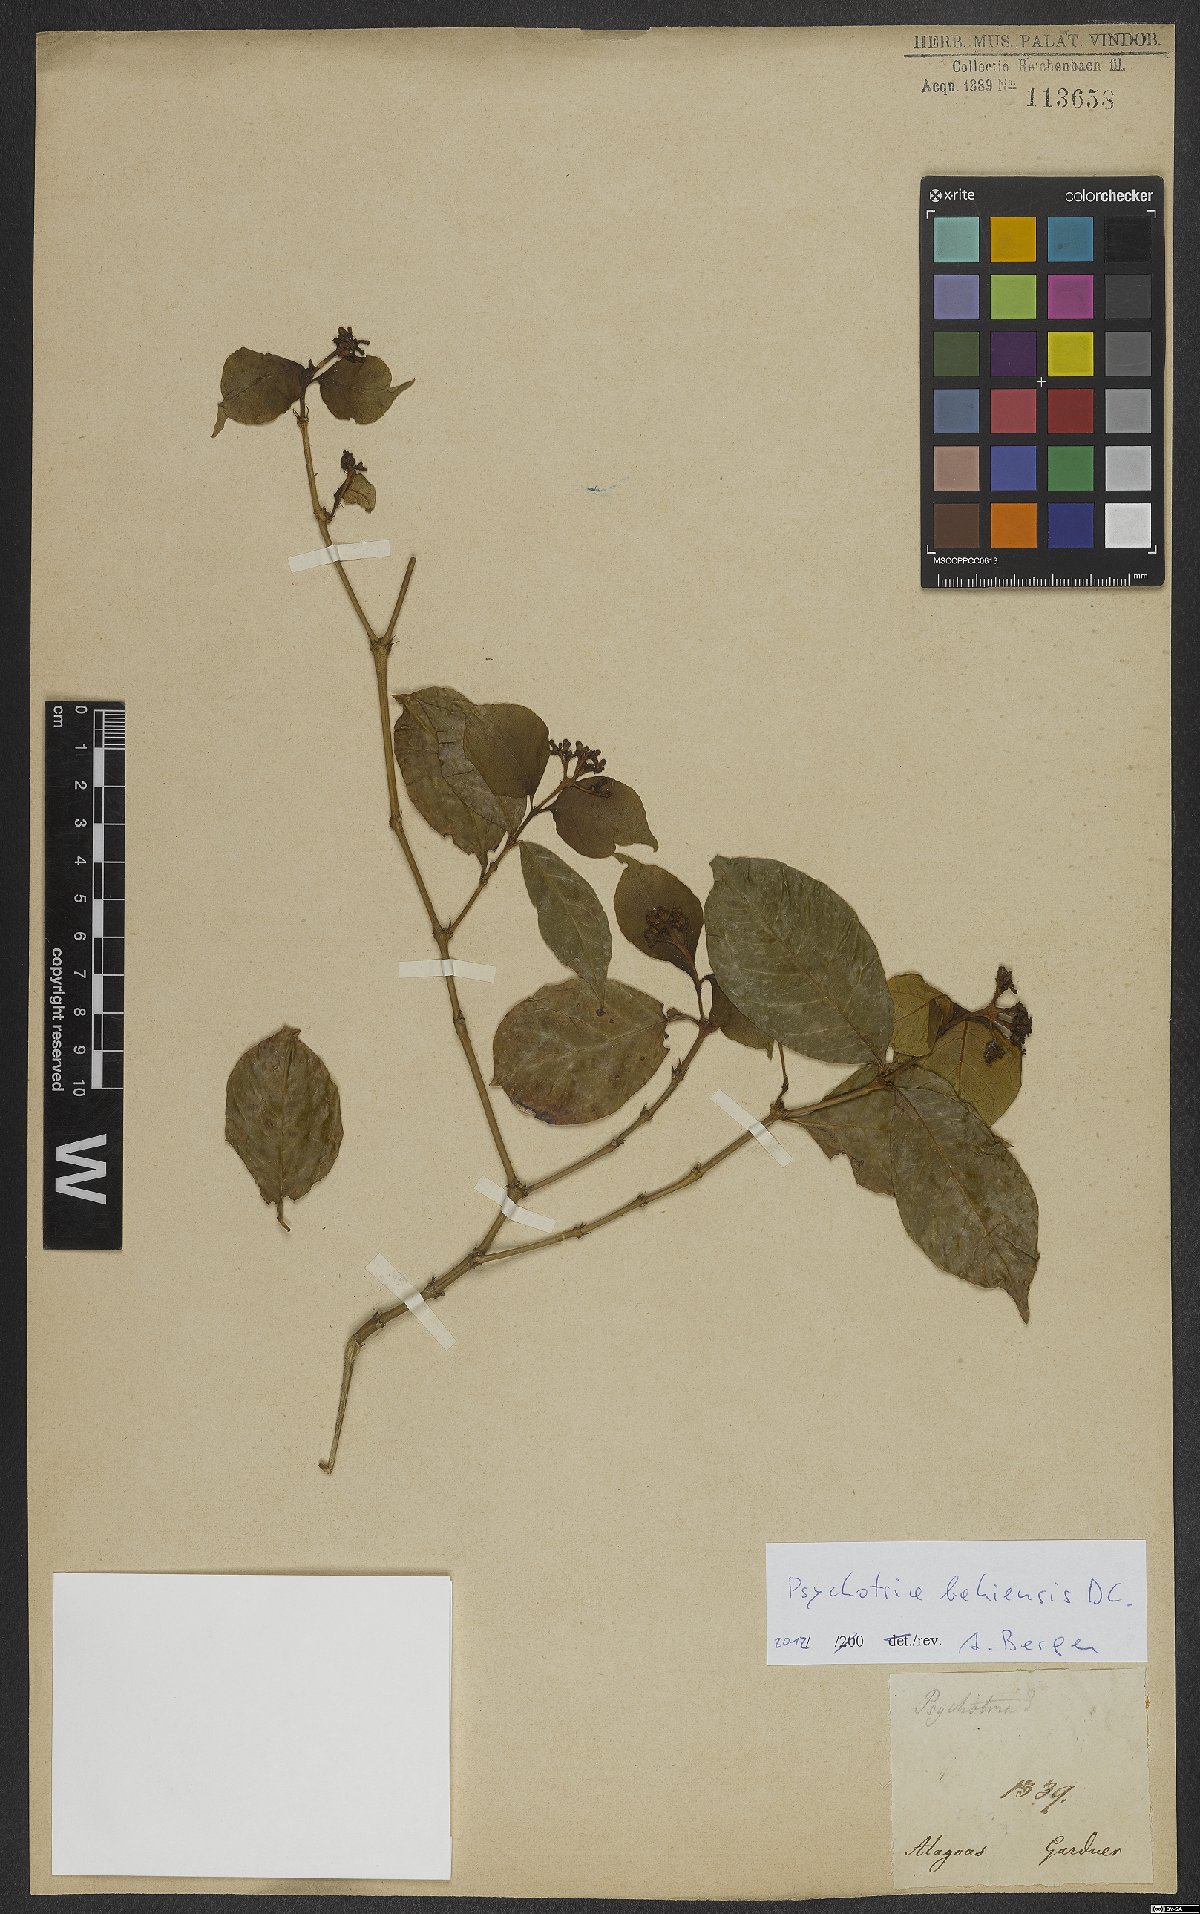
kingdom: Plantae
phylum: Tracheophyta
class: Magnoliopsida
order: Gentianales
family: Rubiaceae
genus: Psychotria
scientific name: Psychotria bahiensis
